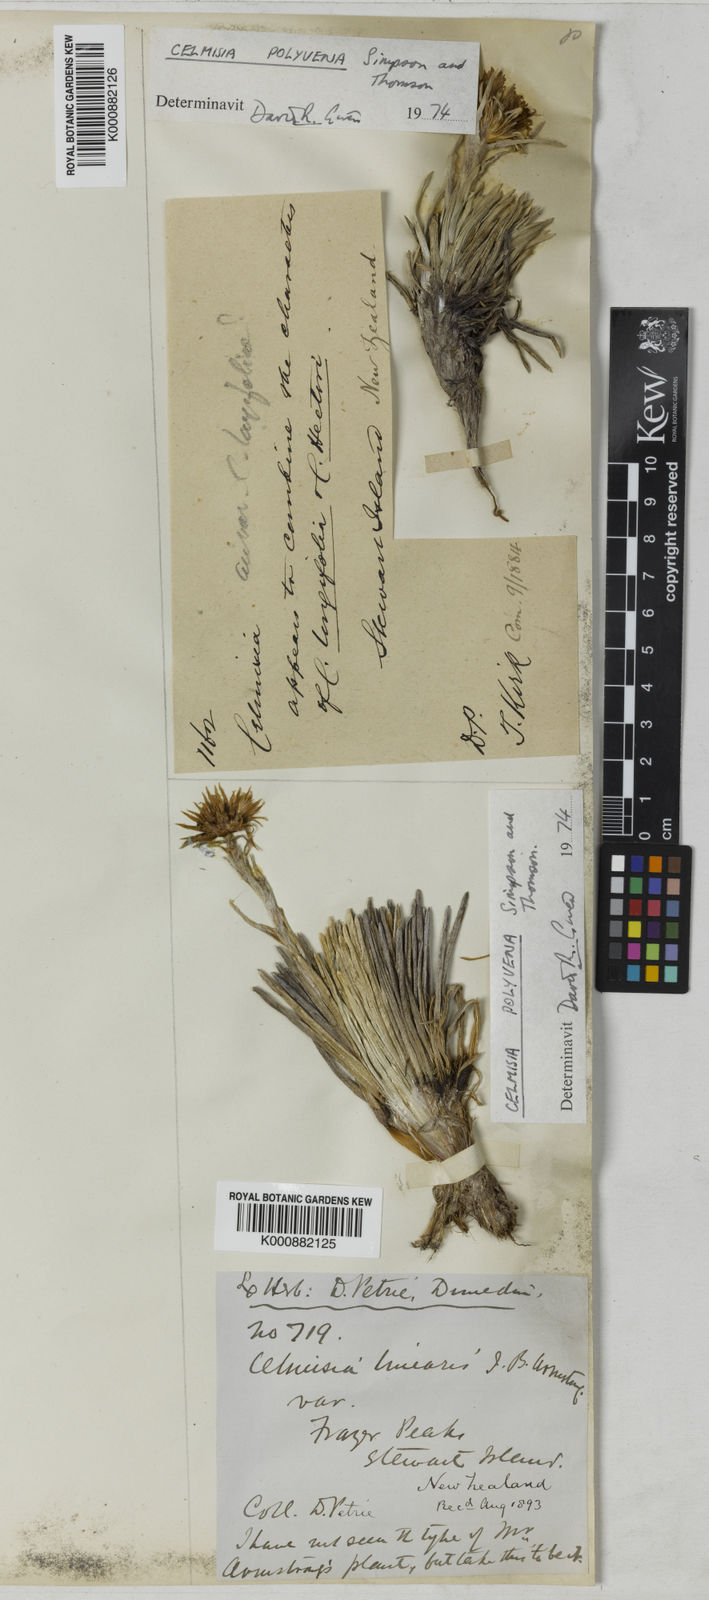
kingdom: Plantae
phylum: Tracheophyta
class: Magnoliopsida
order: Asterales
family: Asteraceae
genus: Celmisia
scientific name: Celmisia polyvena
